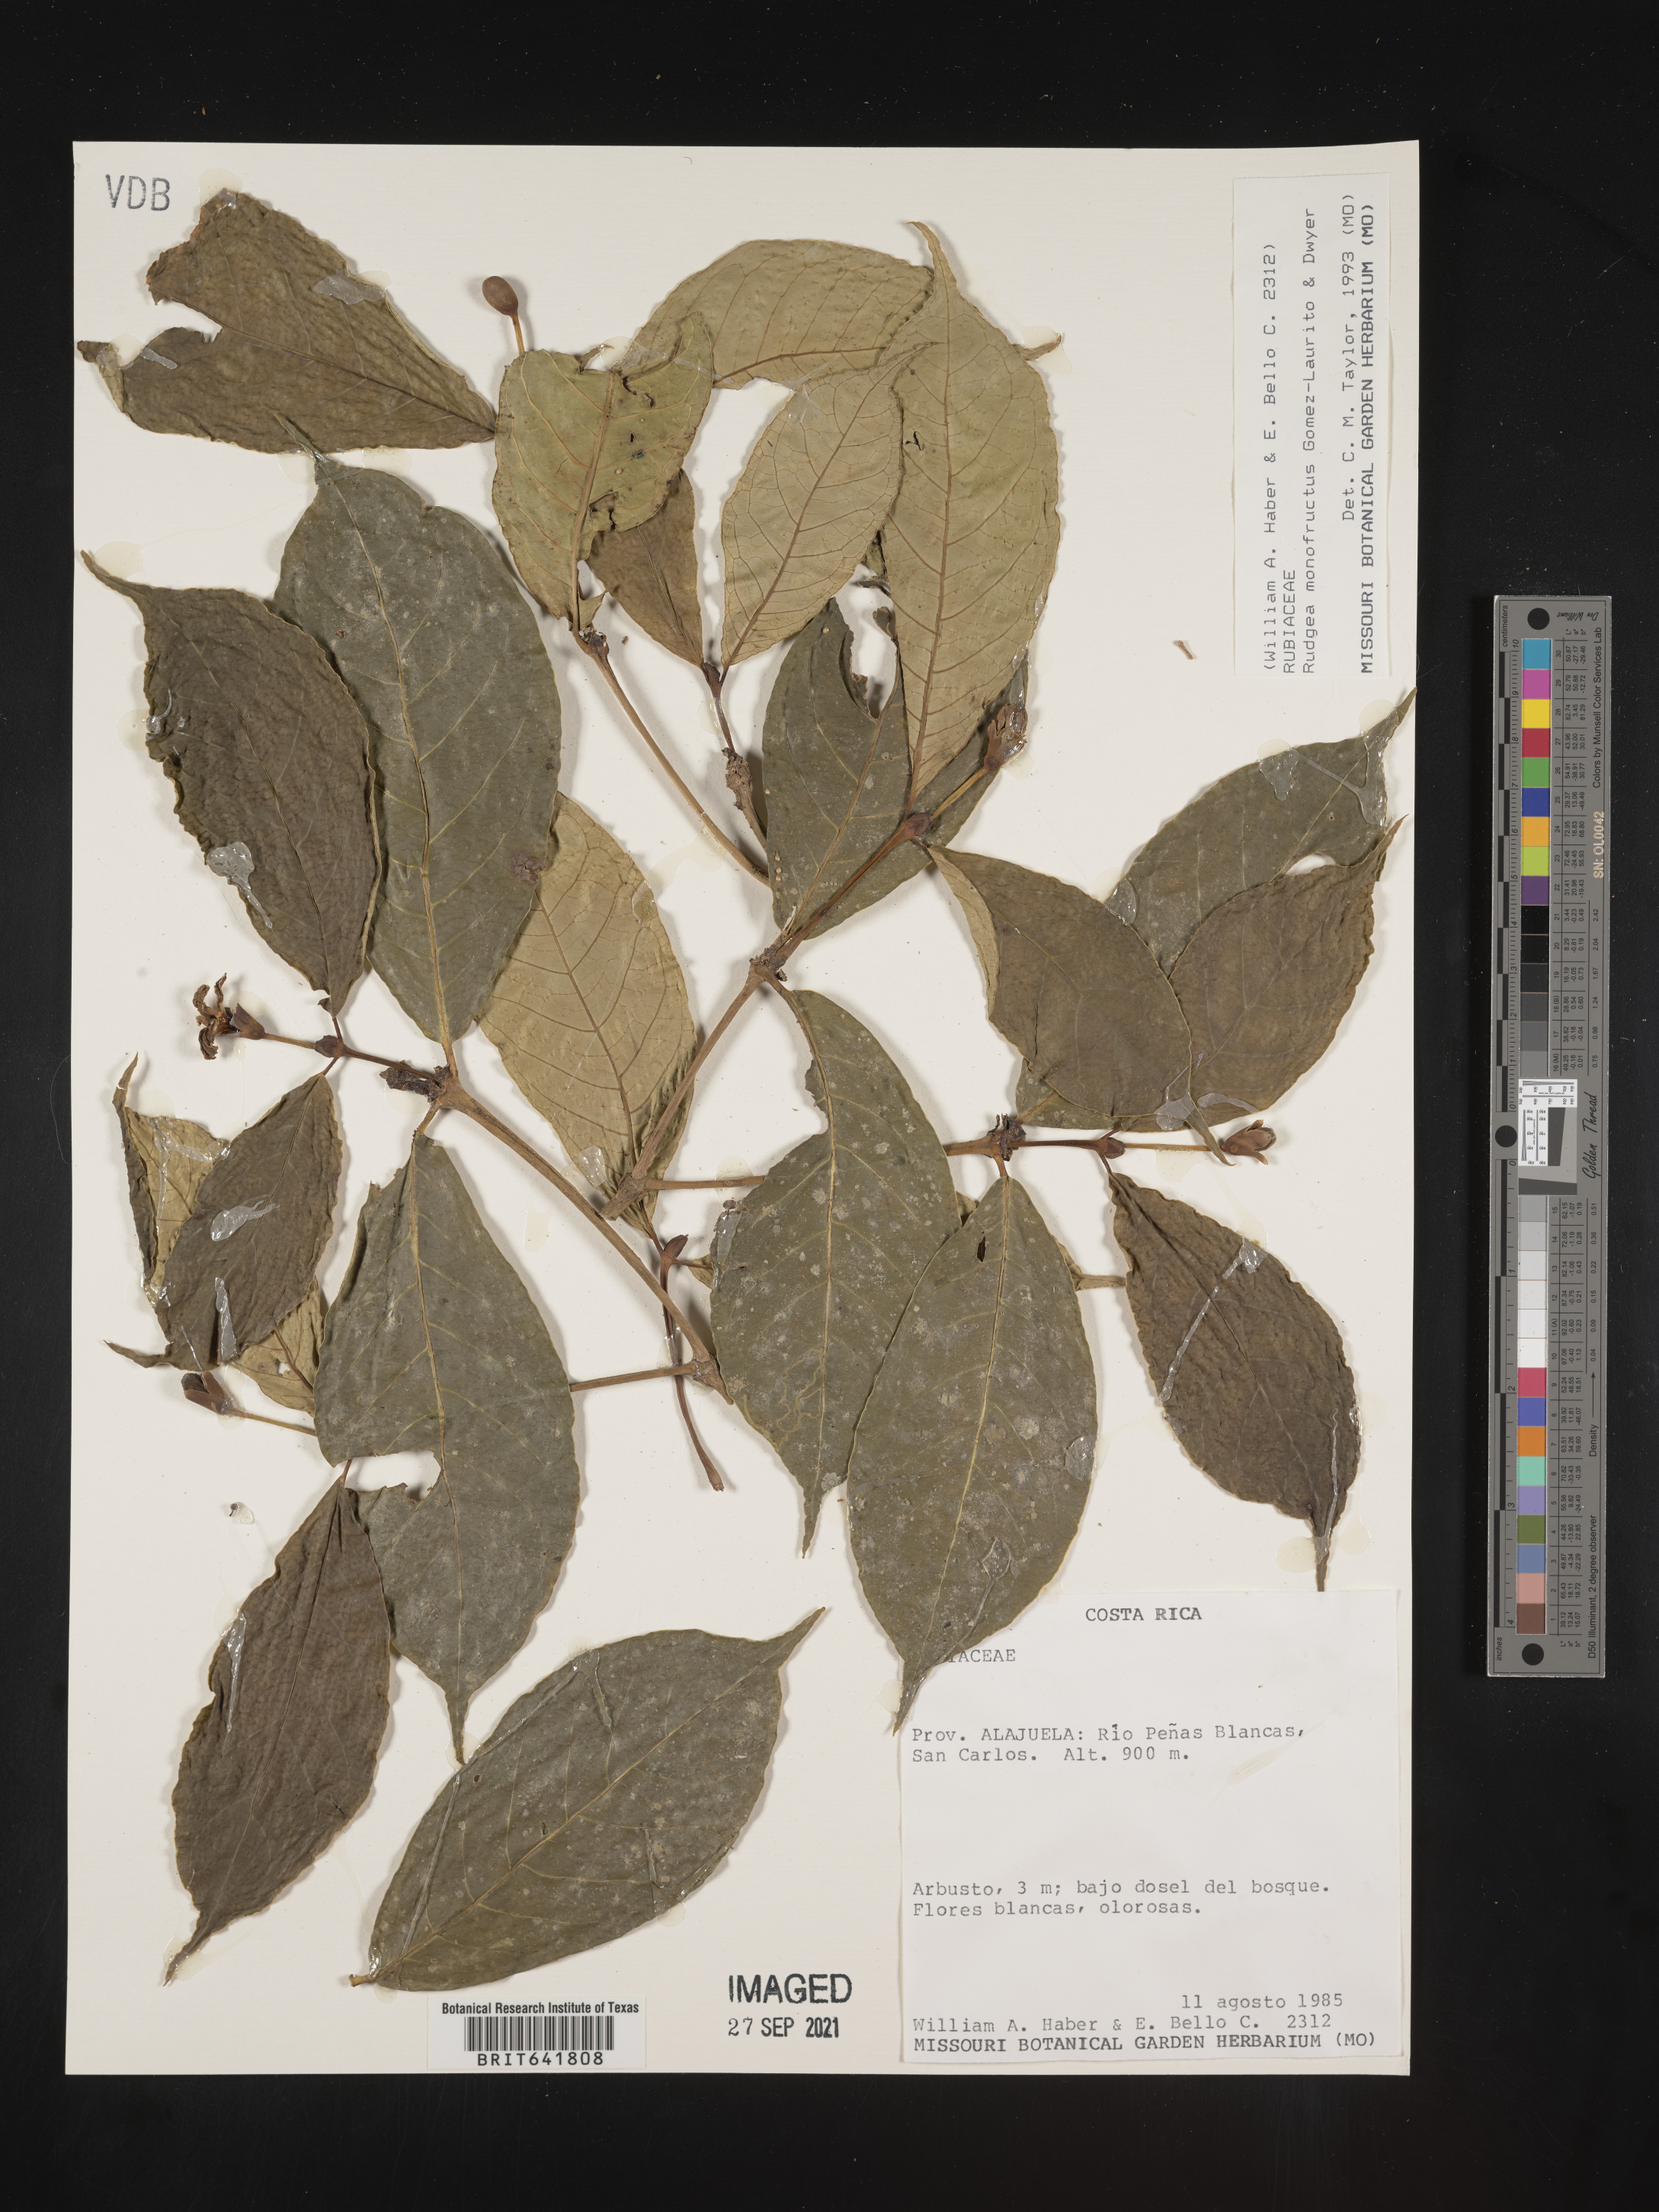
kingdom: Plantae
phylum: Tracheophyta
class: Magnoliopsida
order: Gentianales
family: Rubiaceae
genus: Rudgea
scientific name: Rudgea
